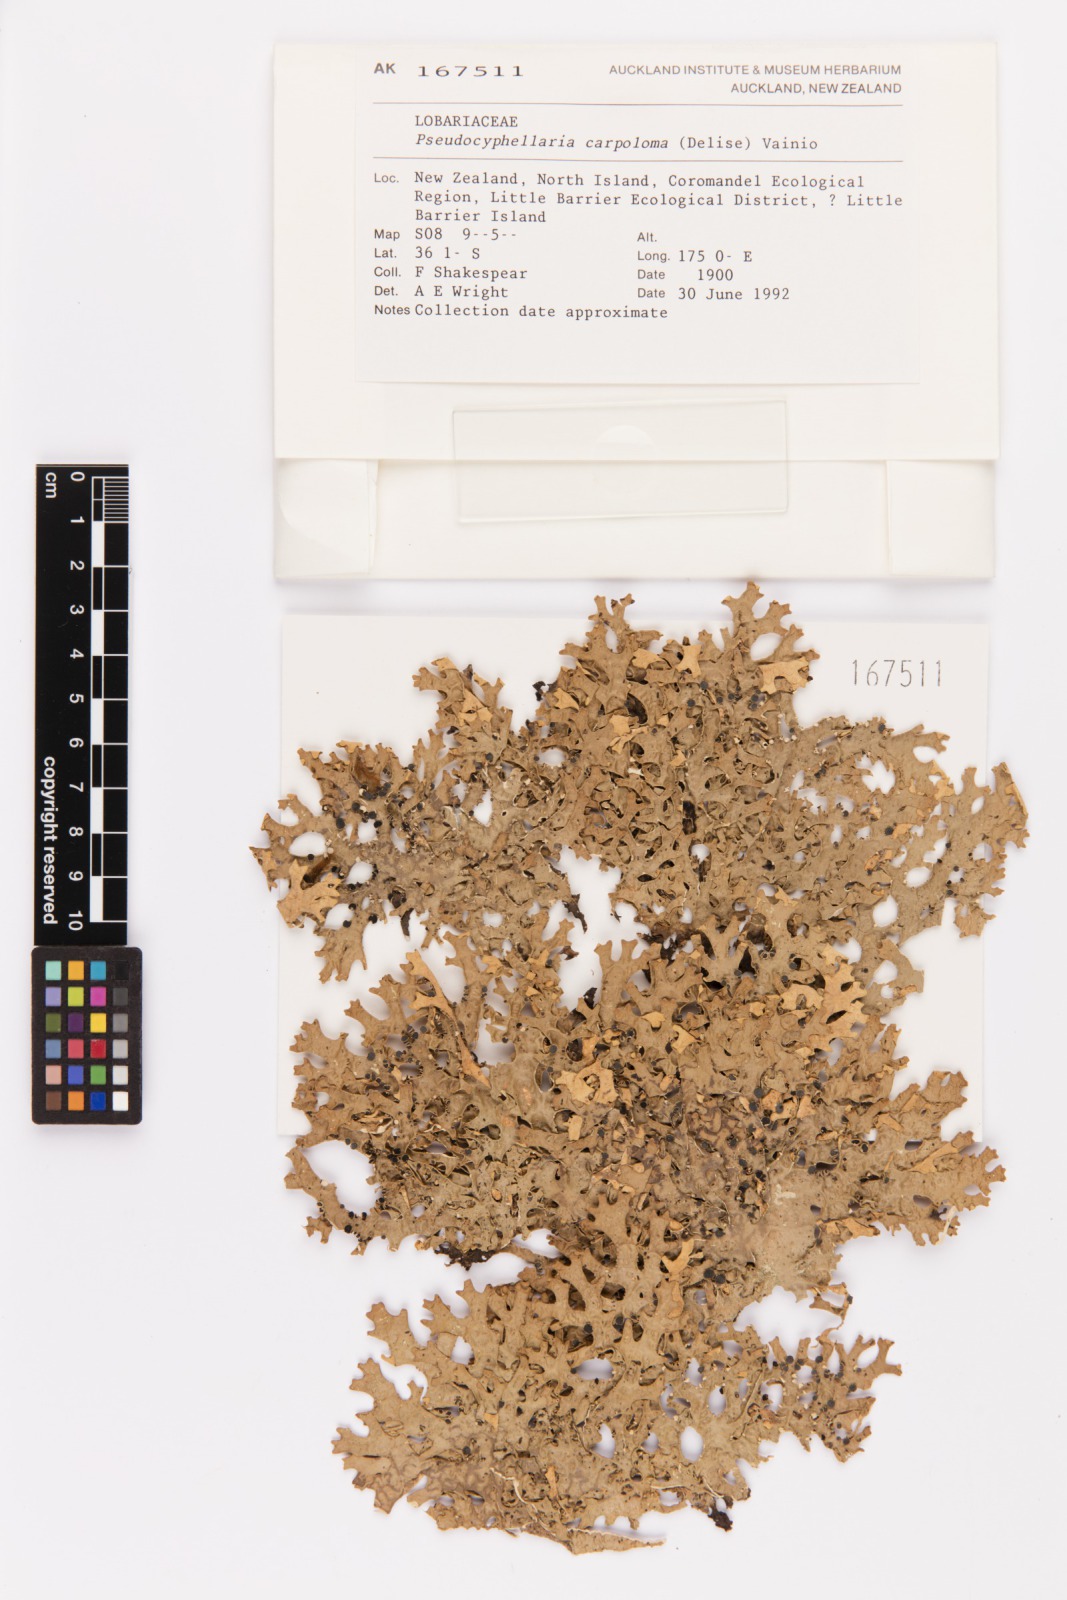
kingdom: Fungi
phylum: Ascomycota
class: Lecanoromycetes
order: Peltigerales
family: Lobariaceae
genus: Pseudocyphellaria
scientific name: Pseudocyphellaria carpoloma
